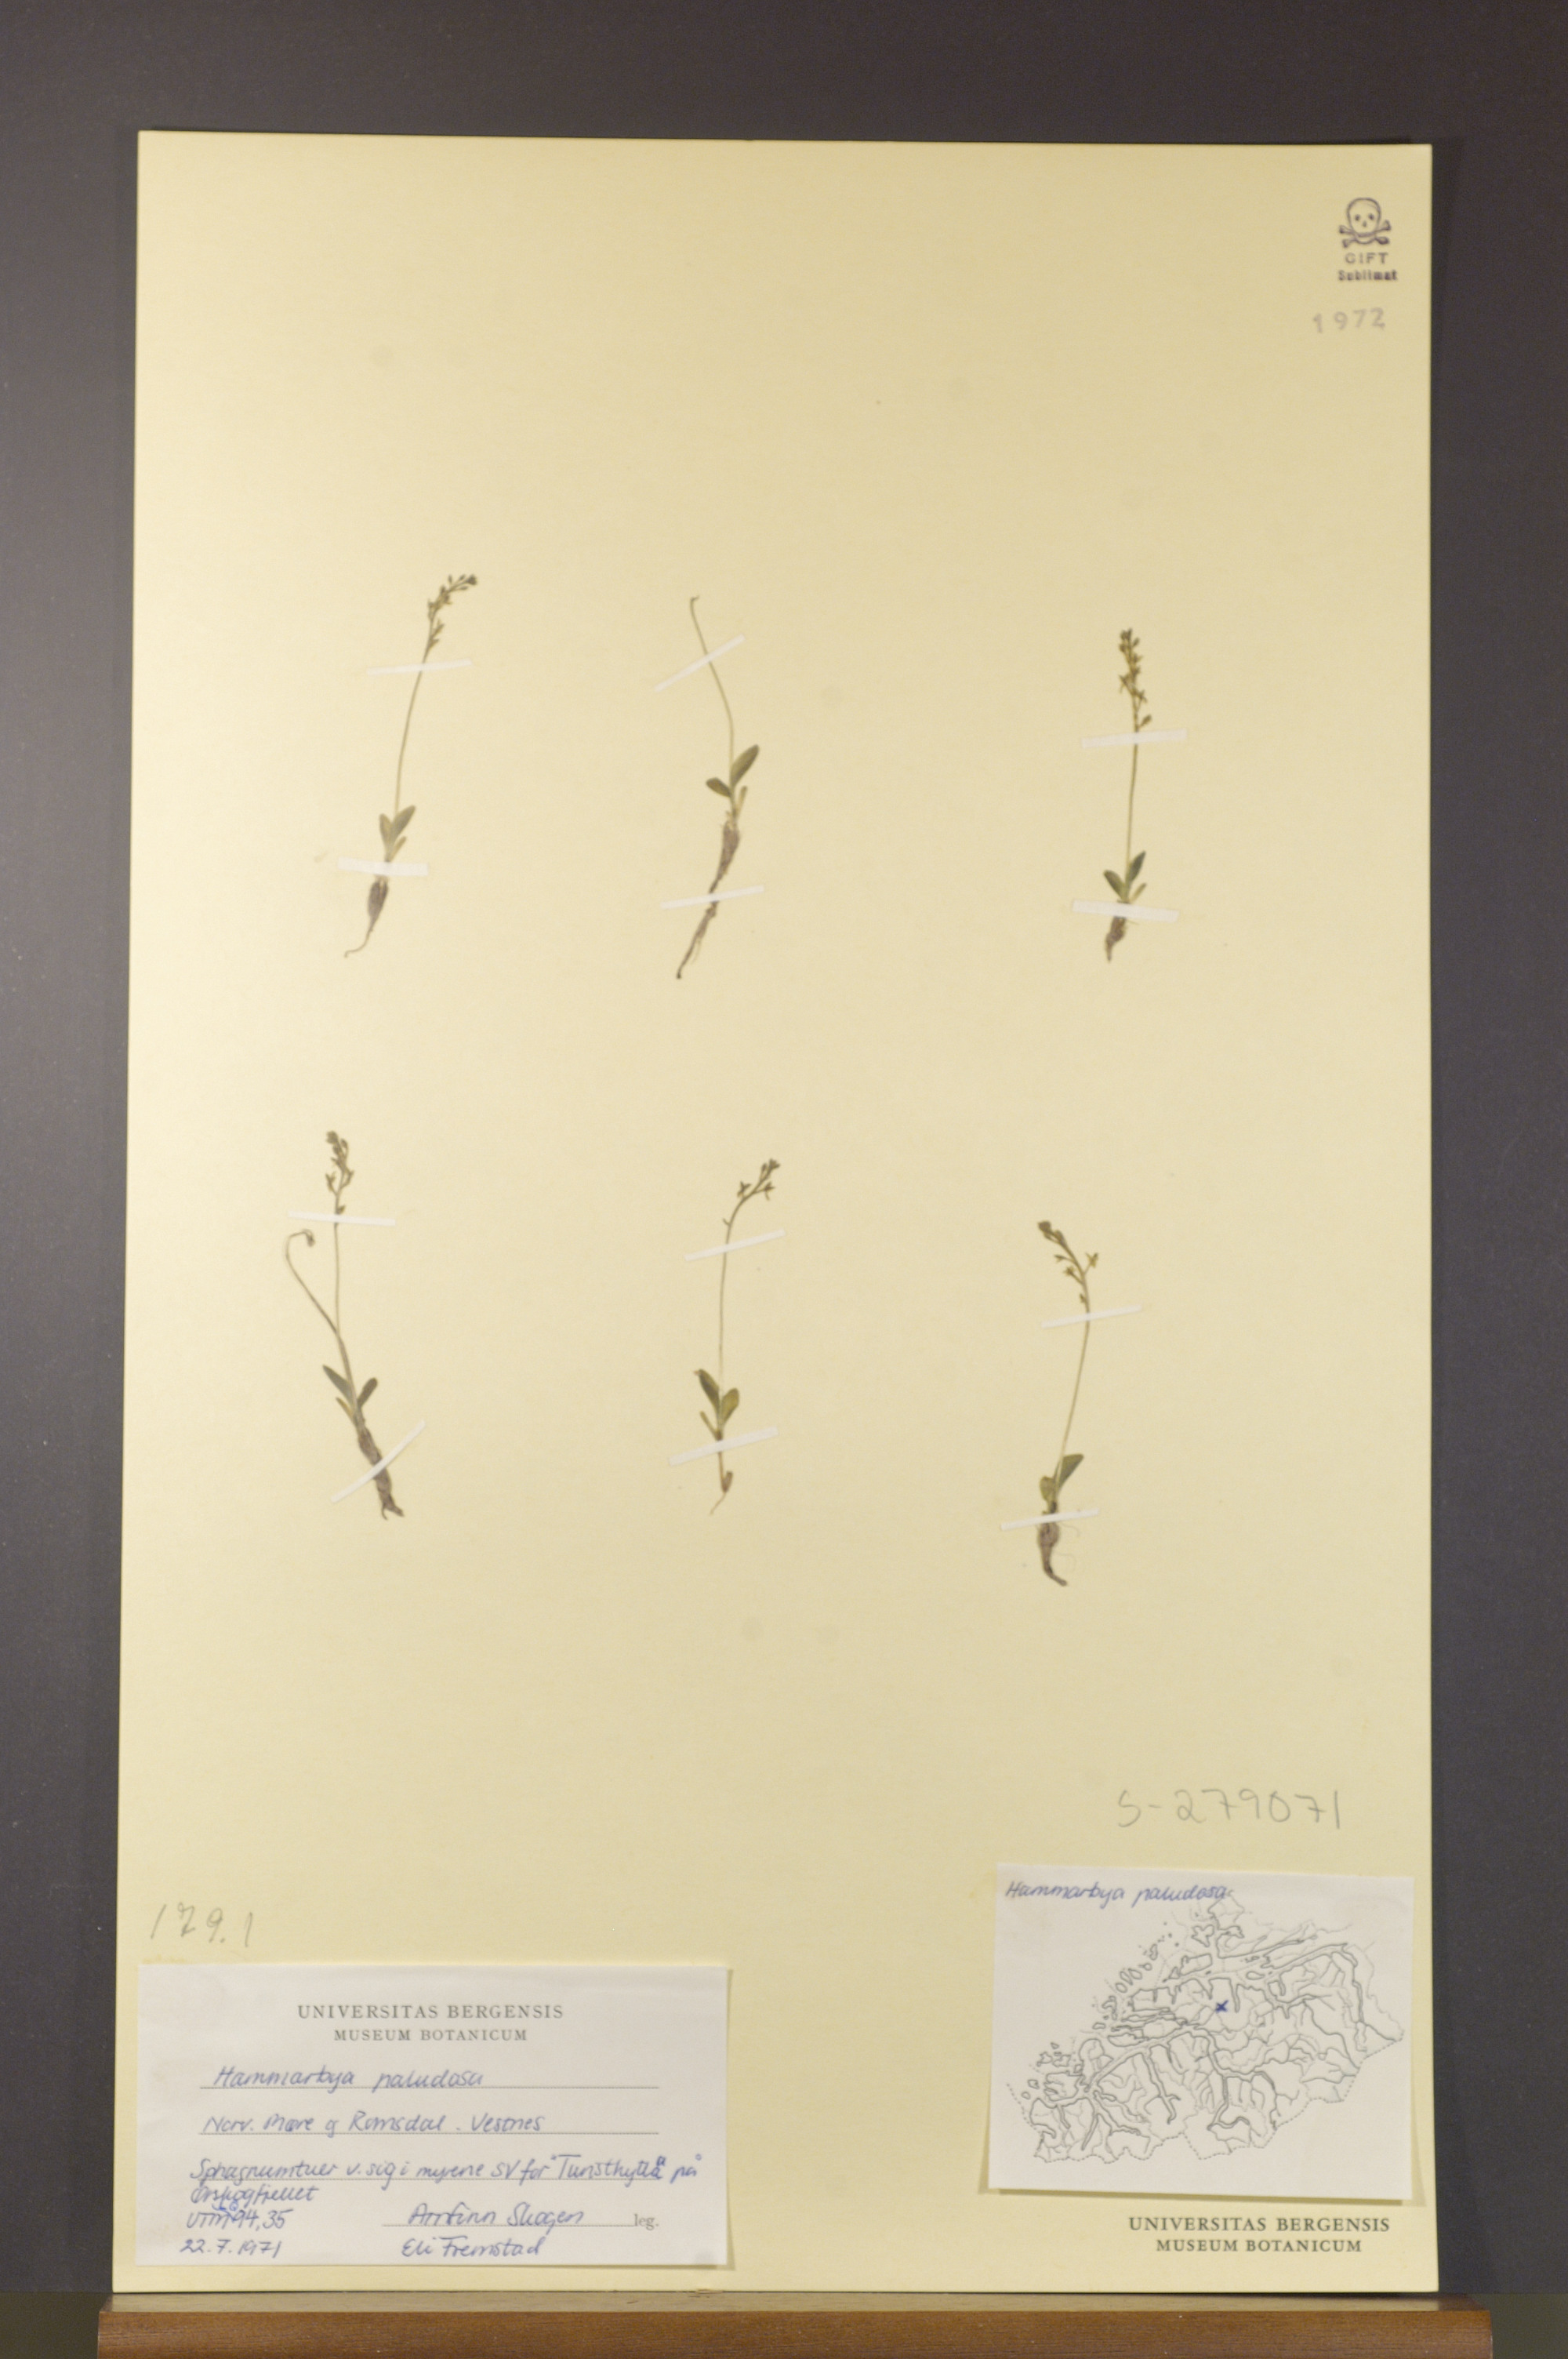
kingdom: Plantae
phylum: Tracheophyta
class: Liliopsida
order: Asparagales
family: Orchidaceae
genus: Hammarbya
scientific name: Hammarbya paludosa
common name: Bog orchid
